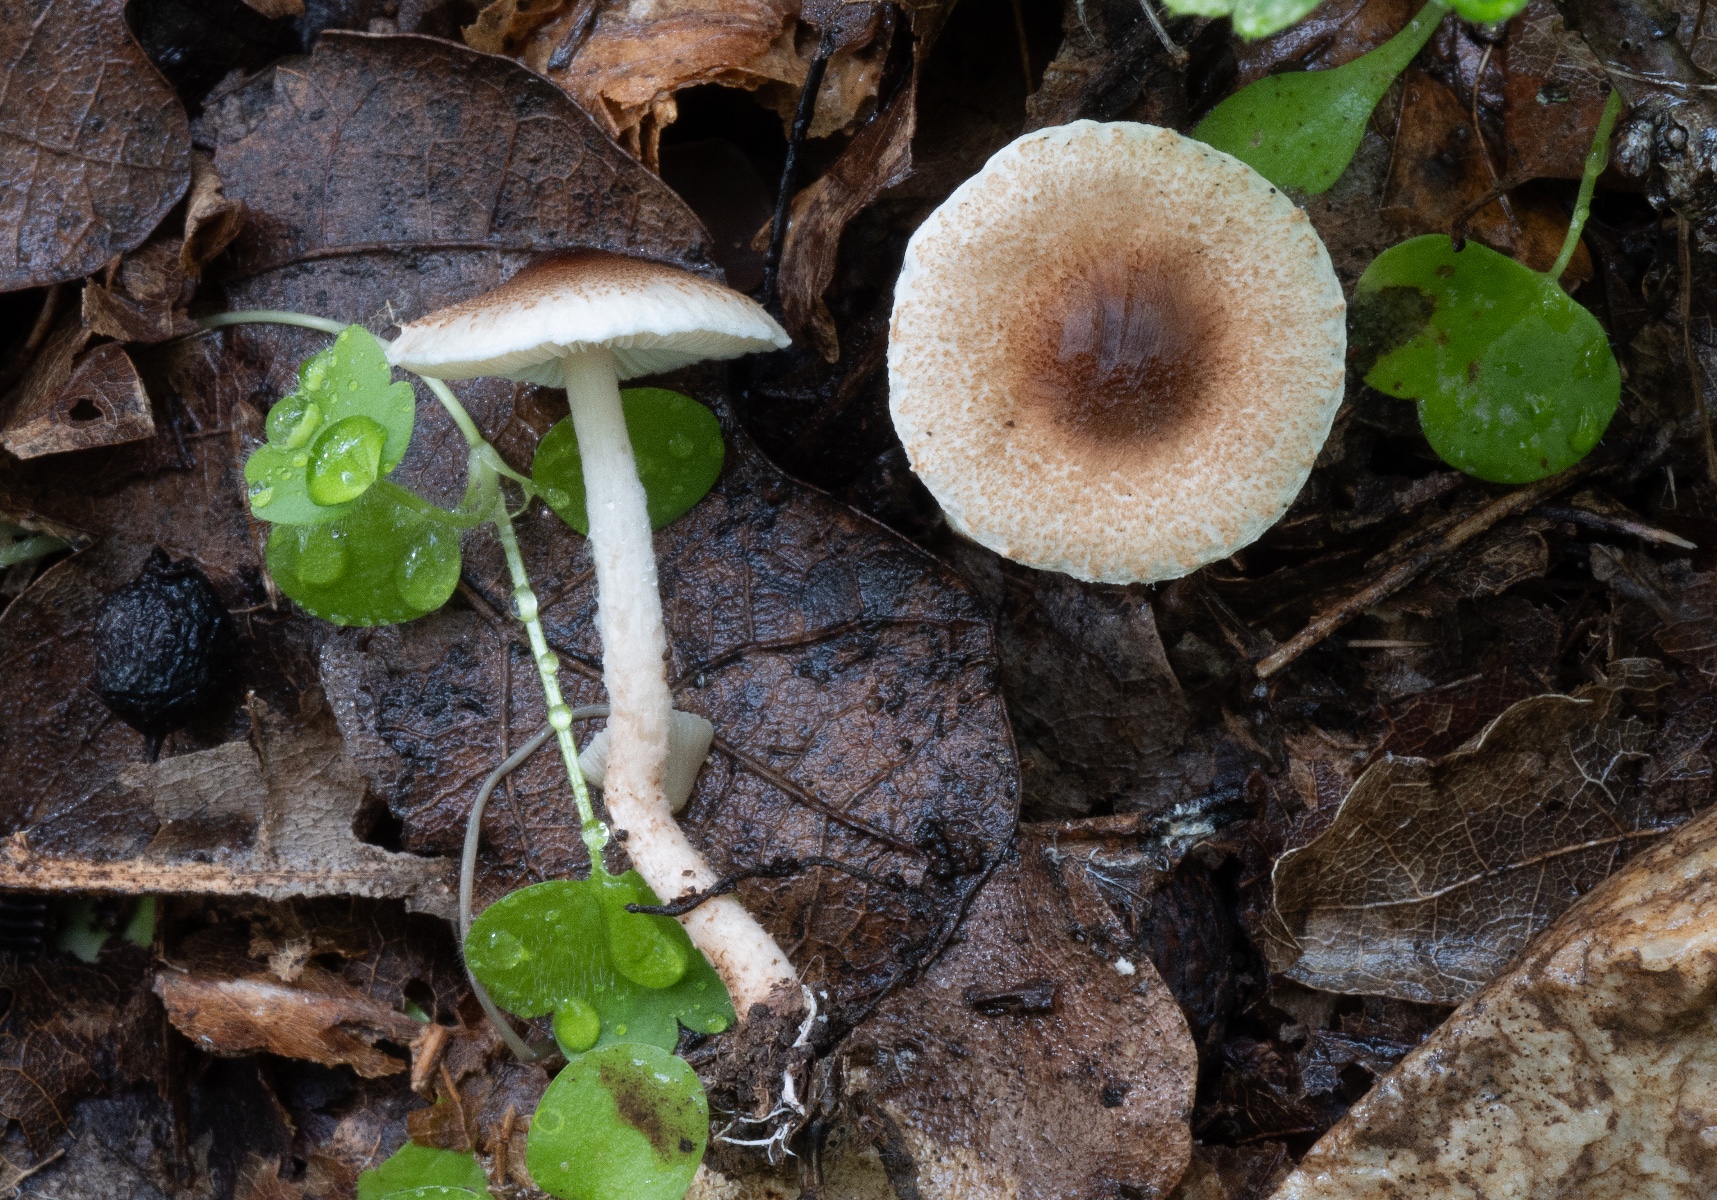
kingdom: Fungi
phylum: Basidiomycota
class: Agaricomycetes
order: Agaricales
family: Agaricaceae
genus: Lepiota
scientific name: Lepiota echinella
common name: finskællet parasolhat
